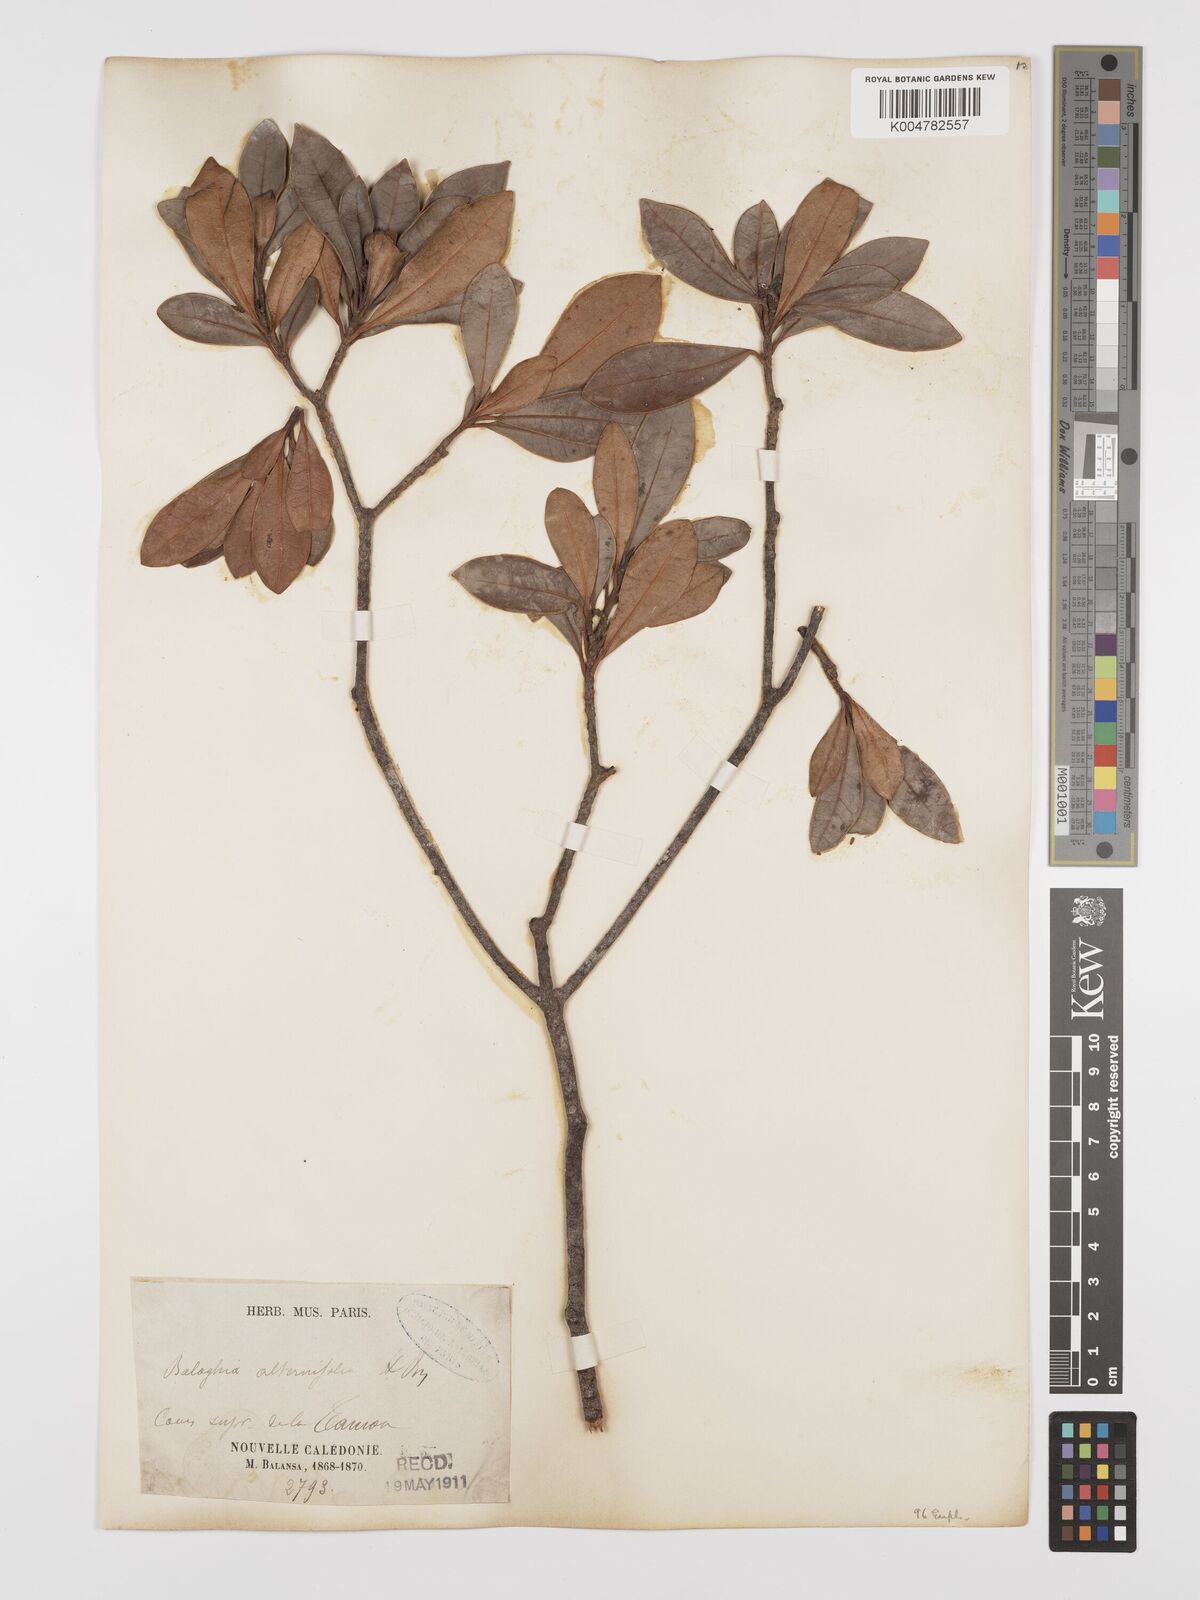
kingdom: Plantae
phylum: Tracheophyta
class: Magnoliopsida
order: Malpighiales
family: Euphorbiaceae
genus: Baloghia
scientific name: Baloghia alternifolia
